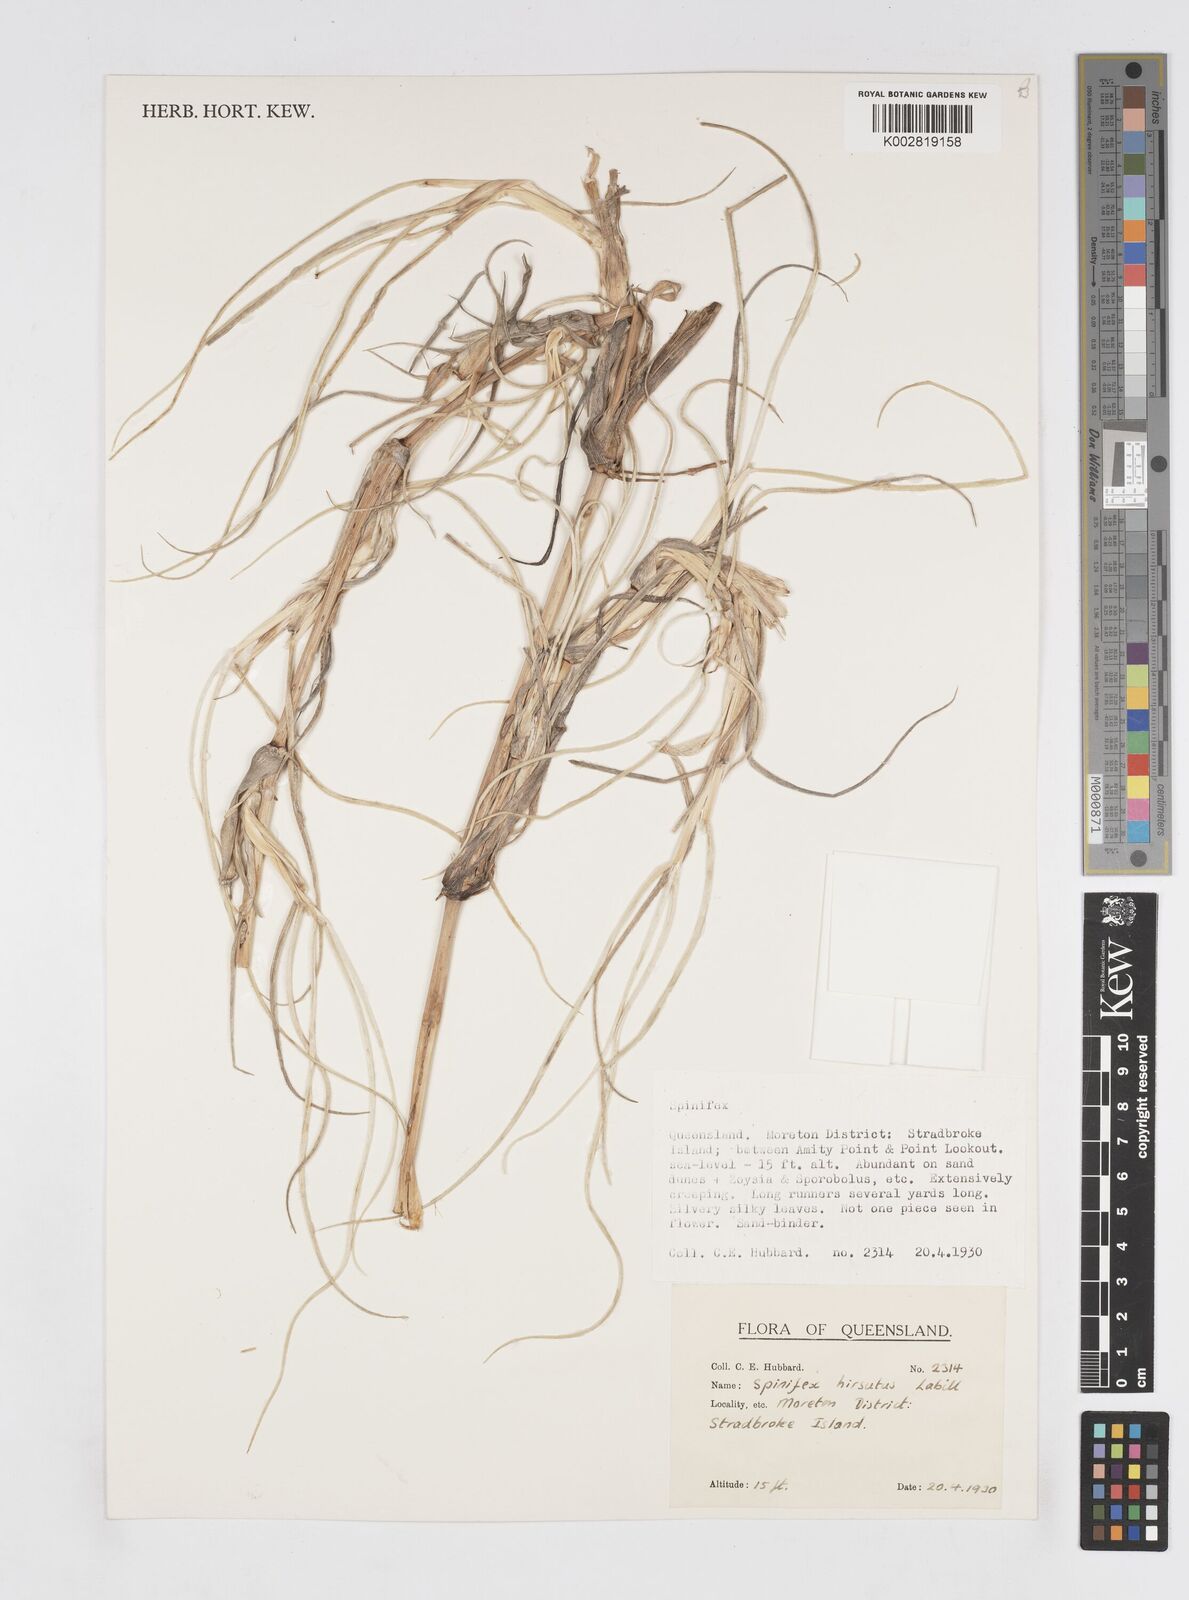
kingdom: Plantae
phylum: Tracheophyta
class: Liliopsida
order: Poales
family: Poaceae
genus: Spinifex
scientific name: Spinifex hirsutus
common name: Hairy spinifex
